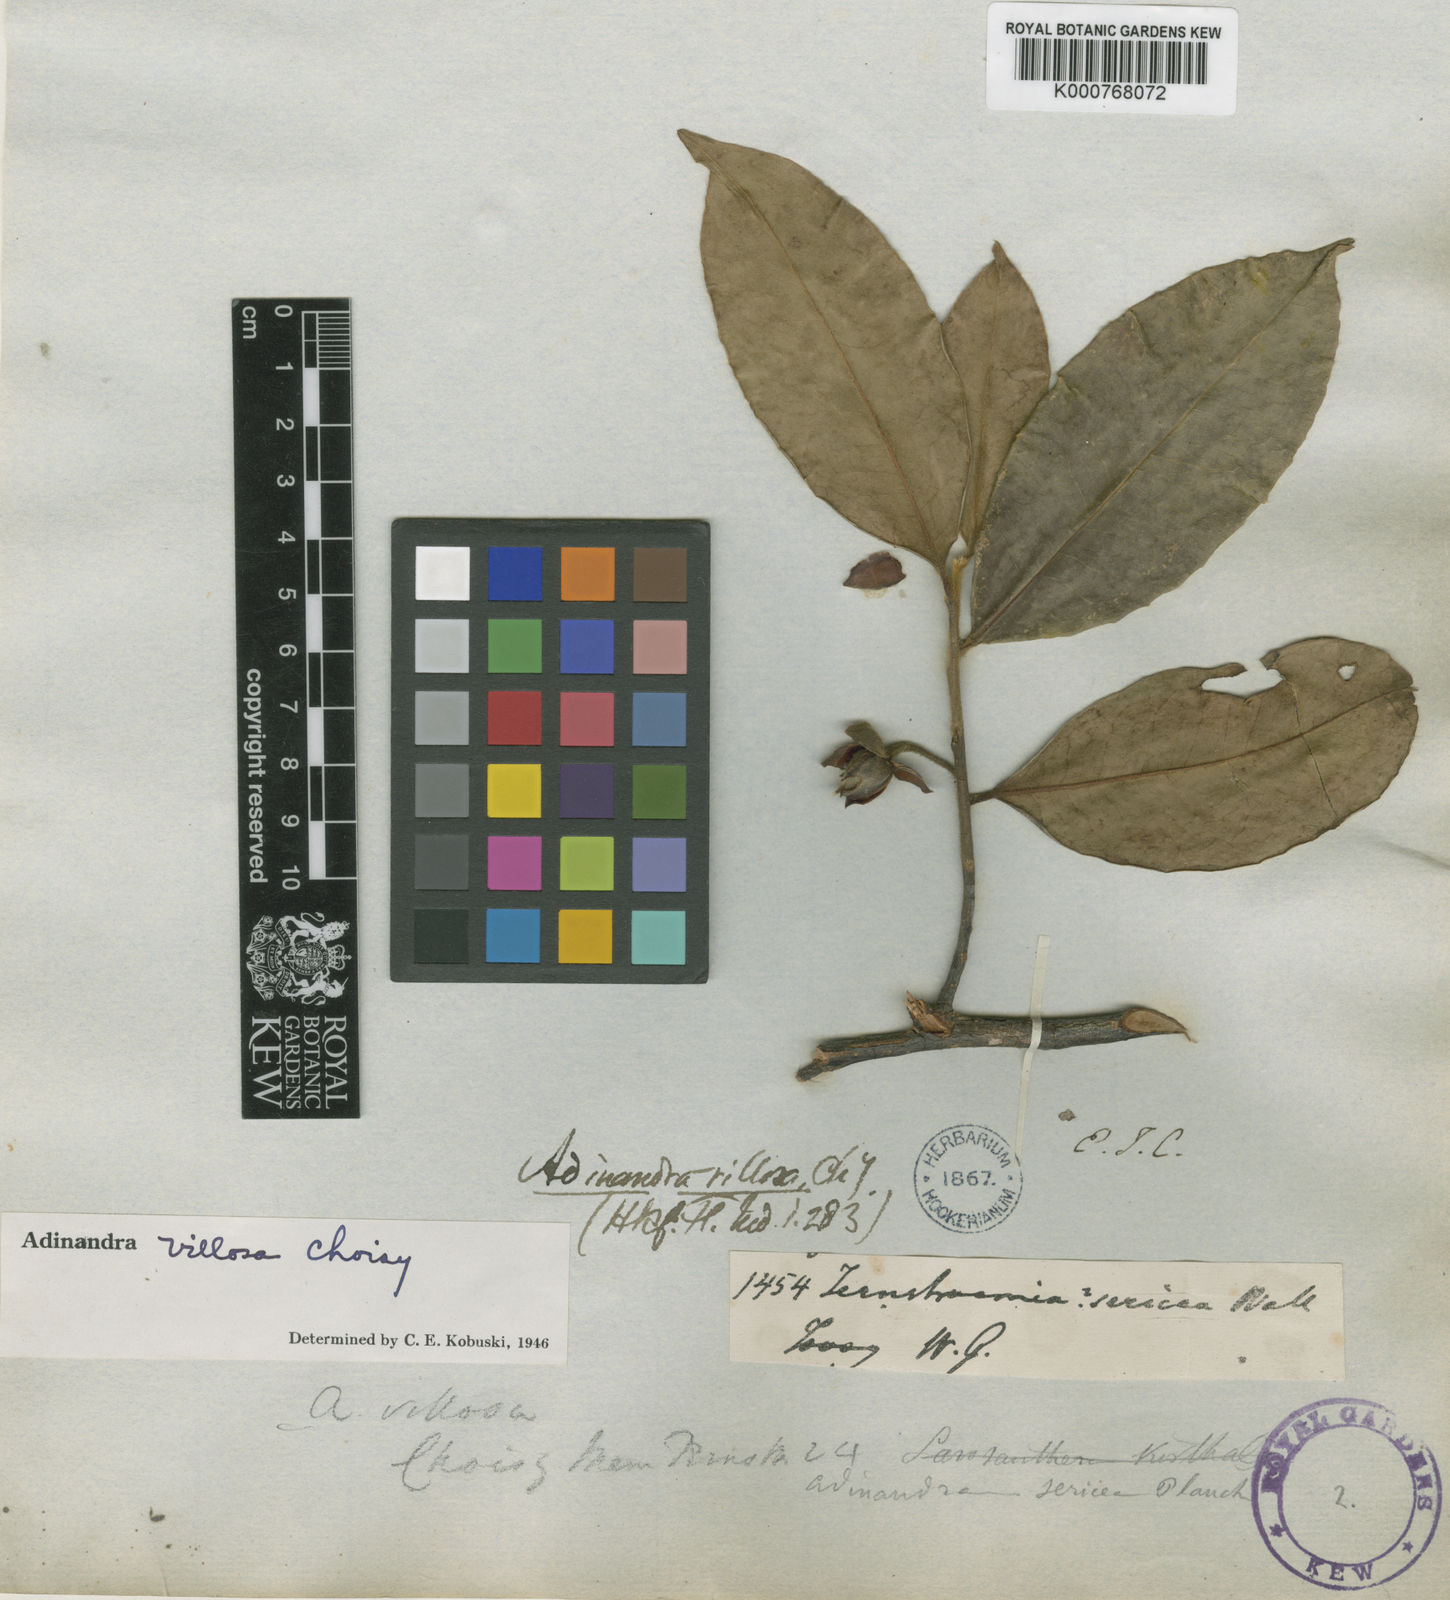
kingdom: Plantae
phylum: Tracheophyta
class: Magnoliopsida
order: Ericales
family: Pentaphylacaceae
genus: Adinandra
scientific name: Adinandra villosa
